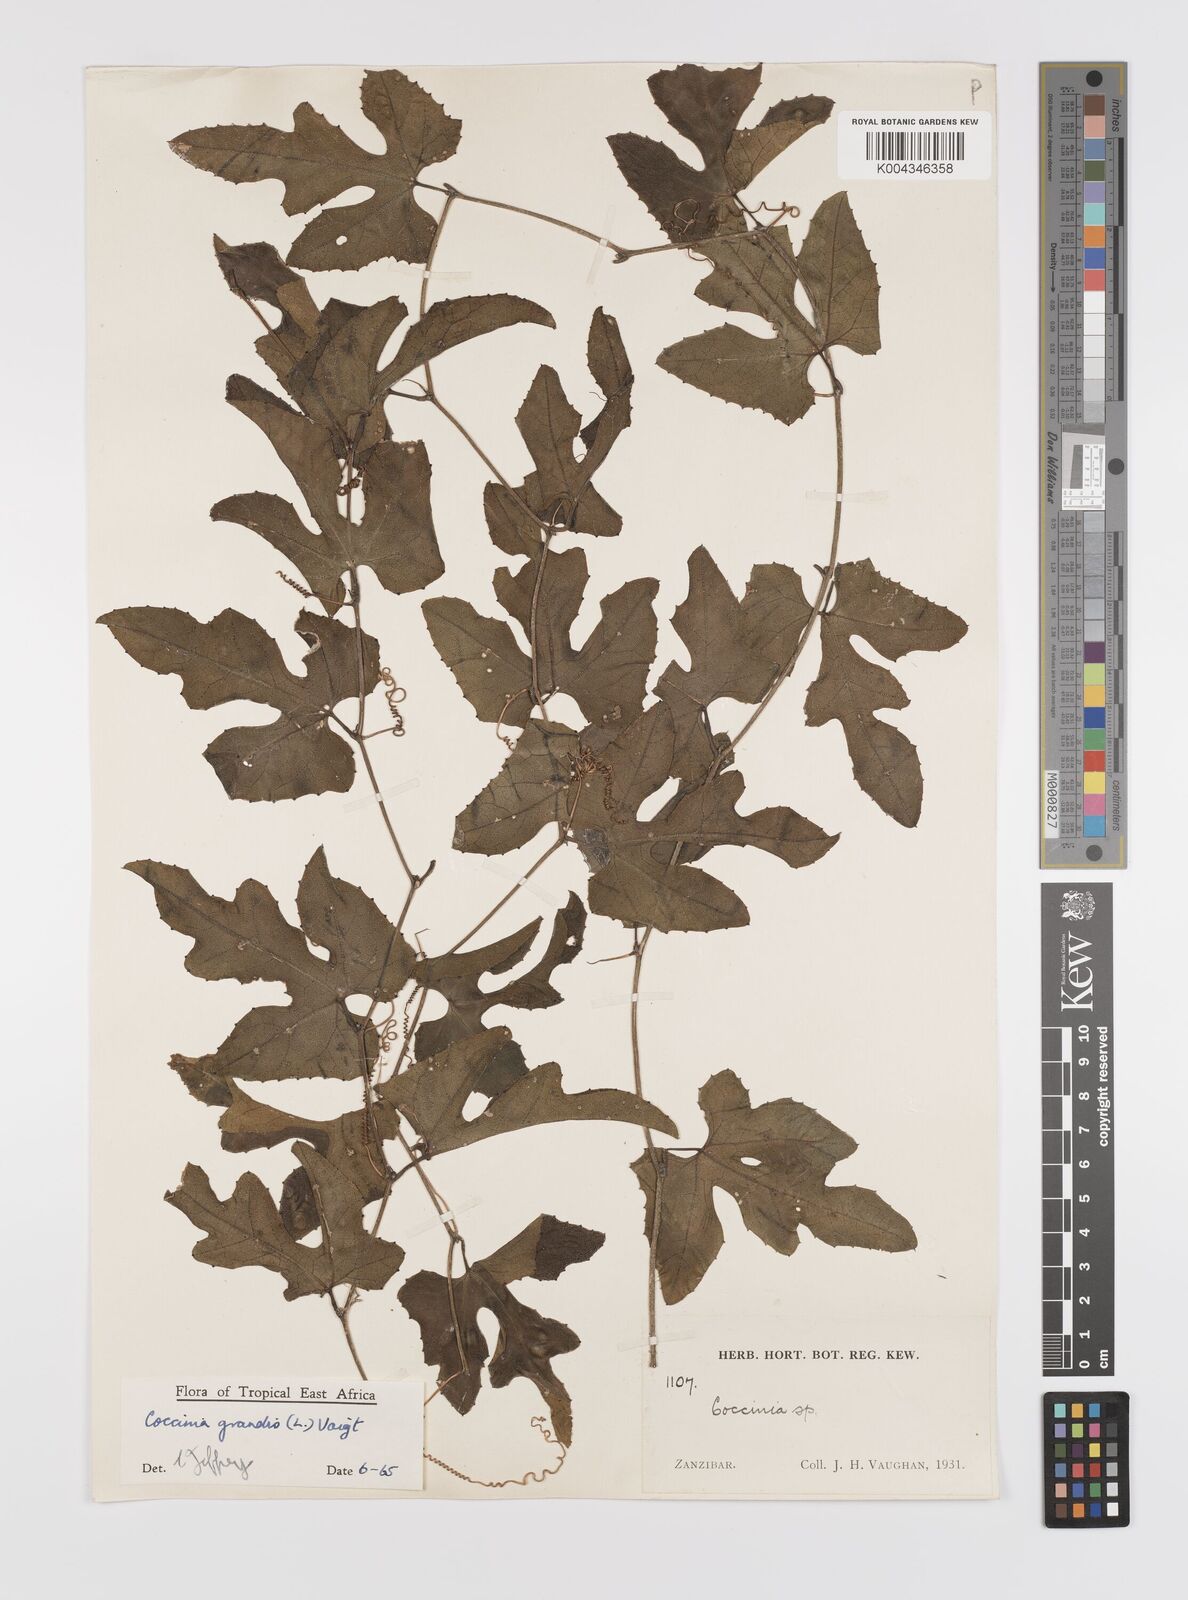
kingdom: Plantae
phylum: Tracheophyta
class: Magnoliopsida
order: Cucurbitales
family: Cucurbitaceae
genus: Coccinia
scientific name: Coccinia grandis
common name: Ivy gourd
